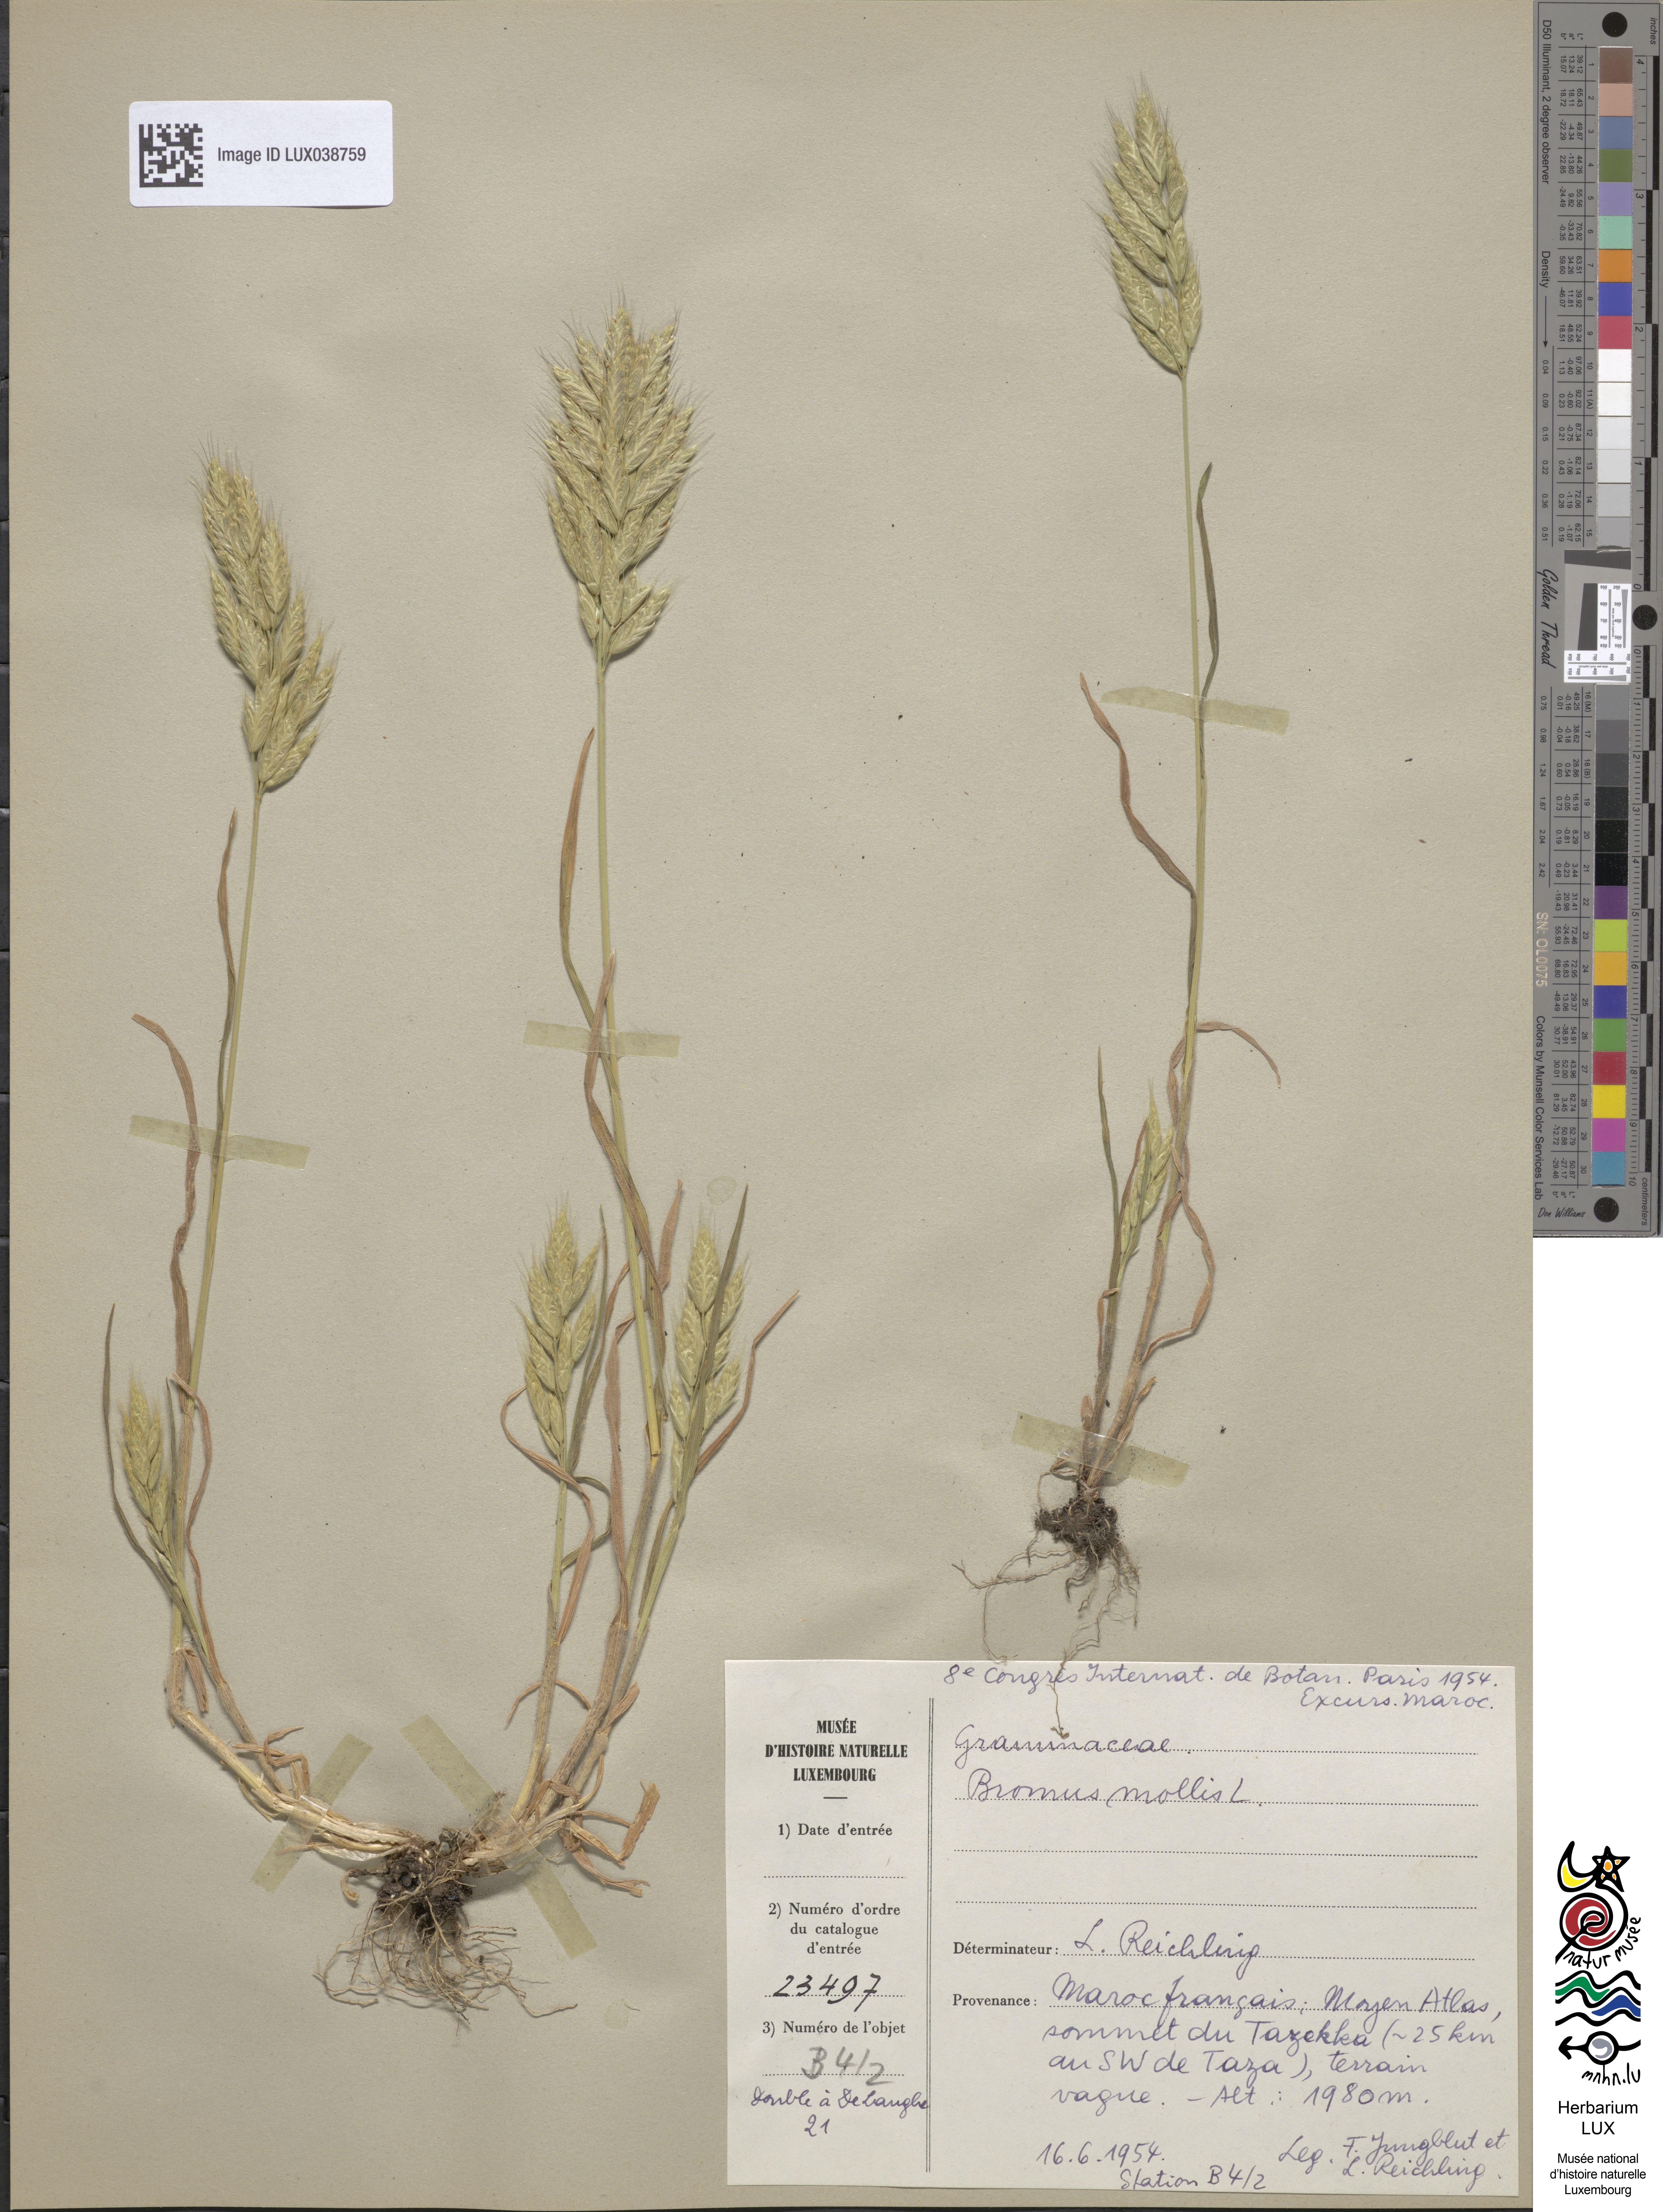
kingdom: Plantae
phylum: Tracheophyta
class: Liliopsida
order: Poales
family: Poaceae
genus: Bromus
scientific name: Bromus hordeaceus
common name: Soft brome
